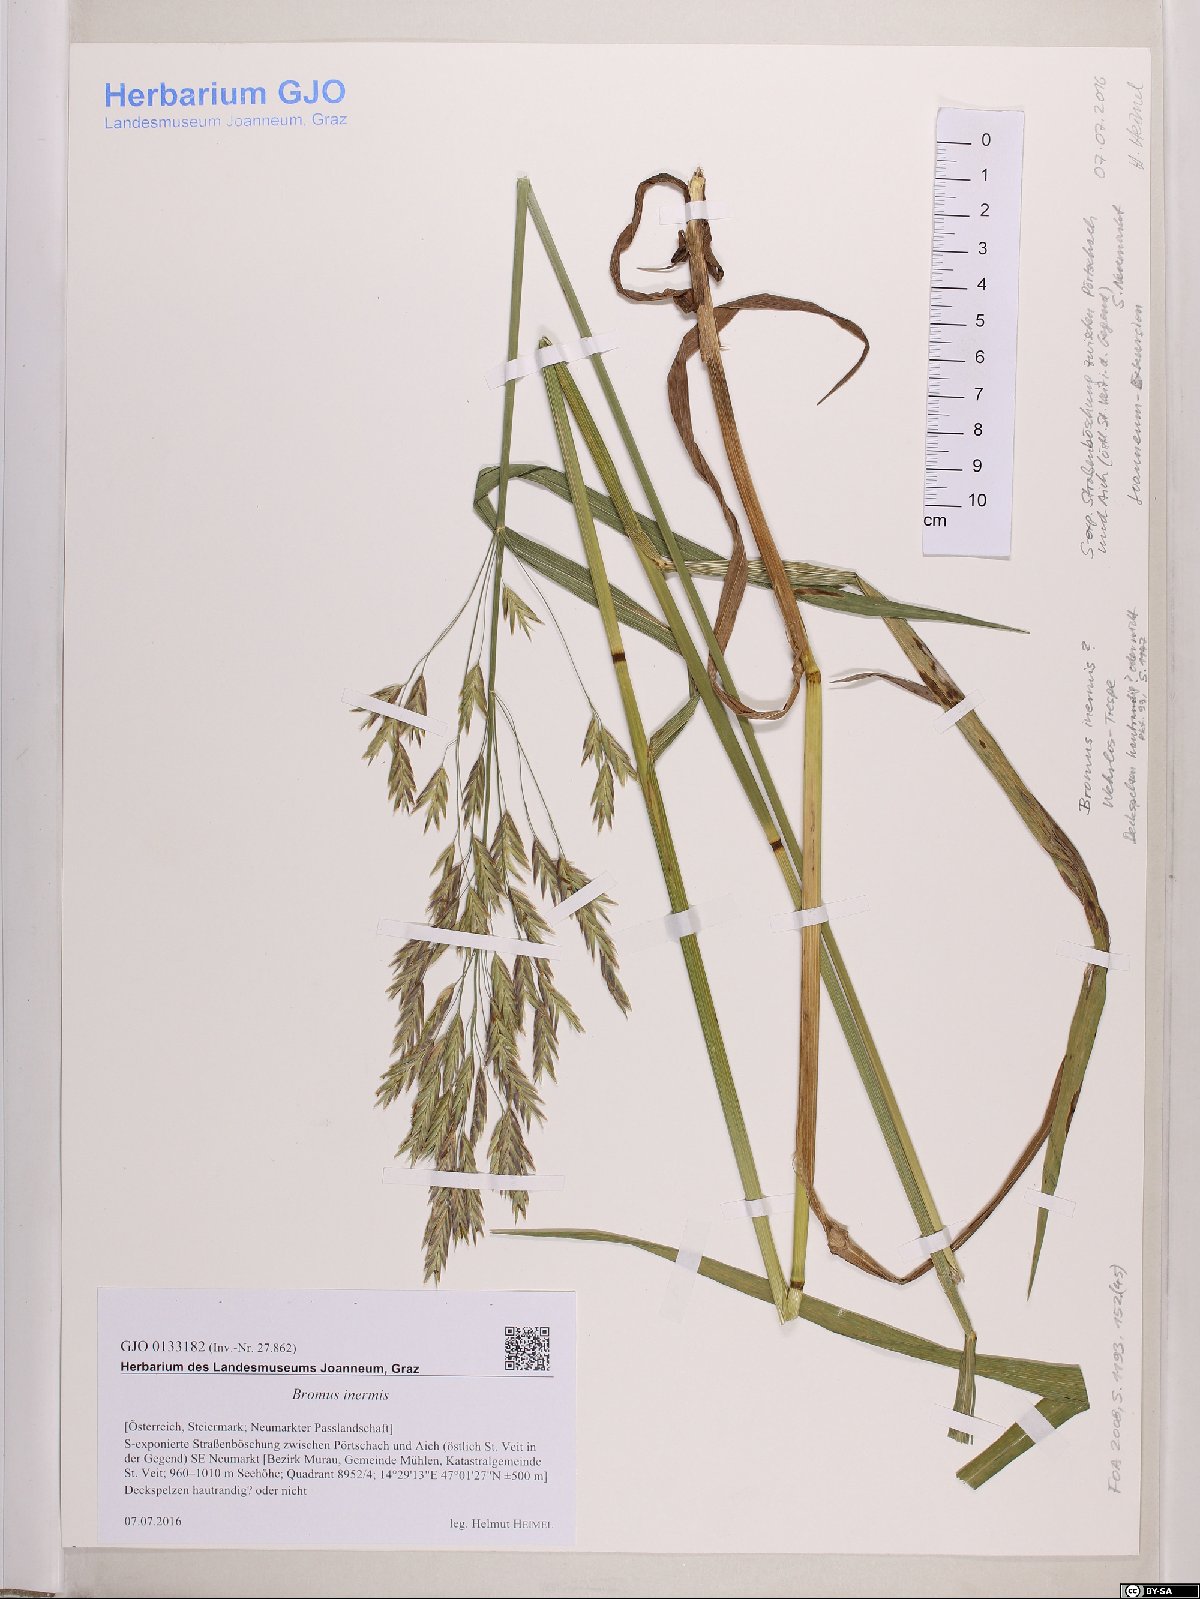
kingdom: Plantae
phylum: Tracheophyta
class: Liliopsida
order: Poales
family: Poaceae
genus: Bromus
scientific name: Bromus inermis
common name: Smooth brome
